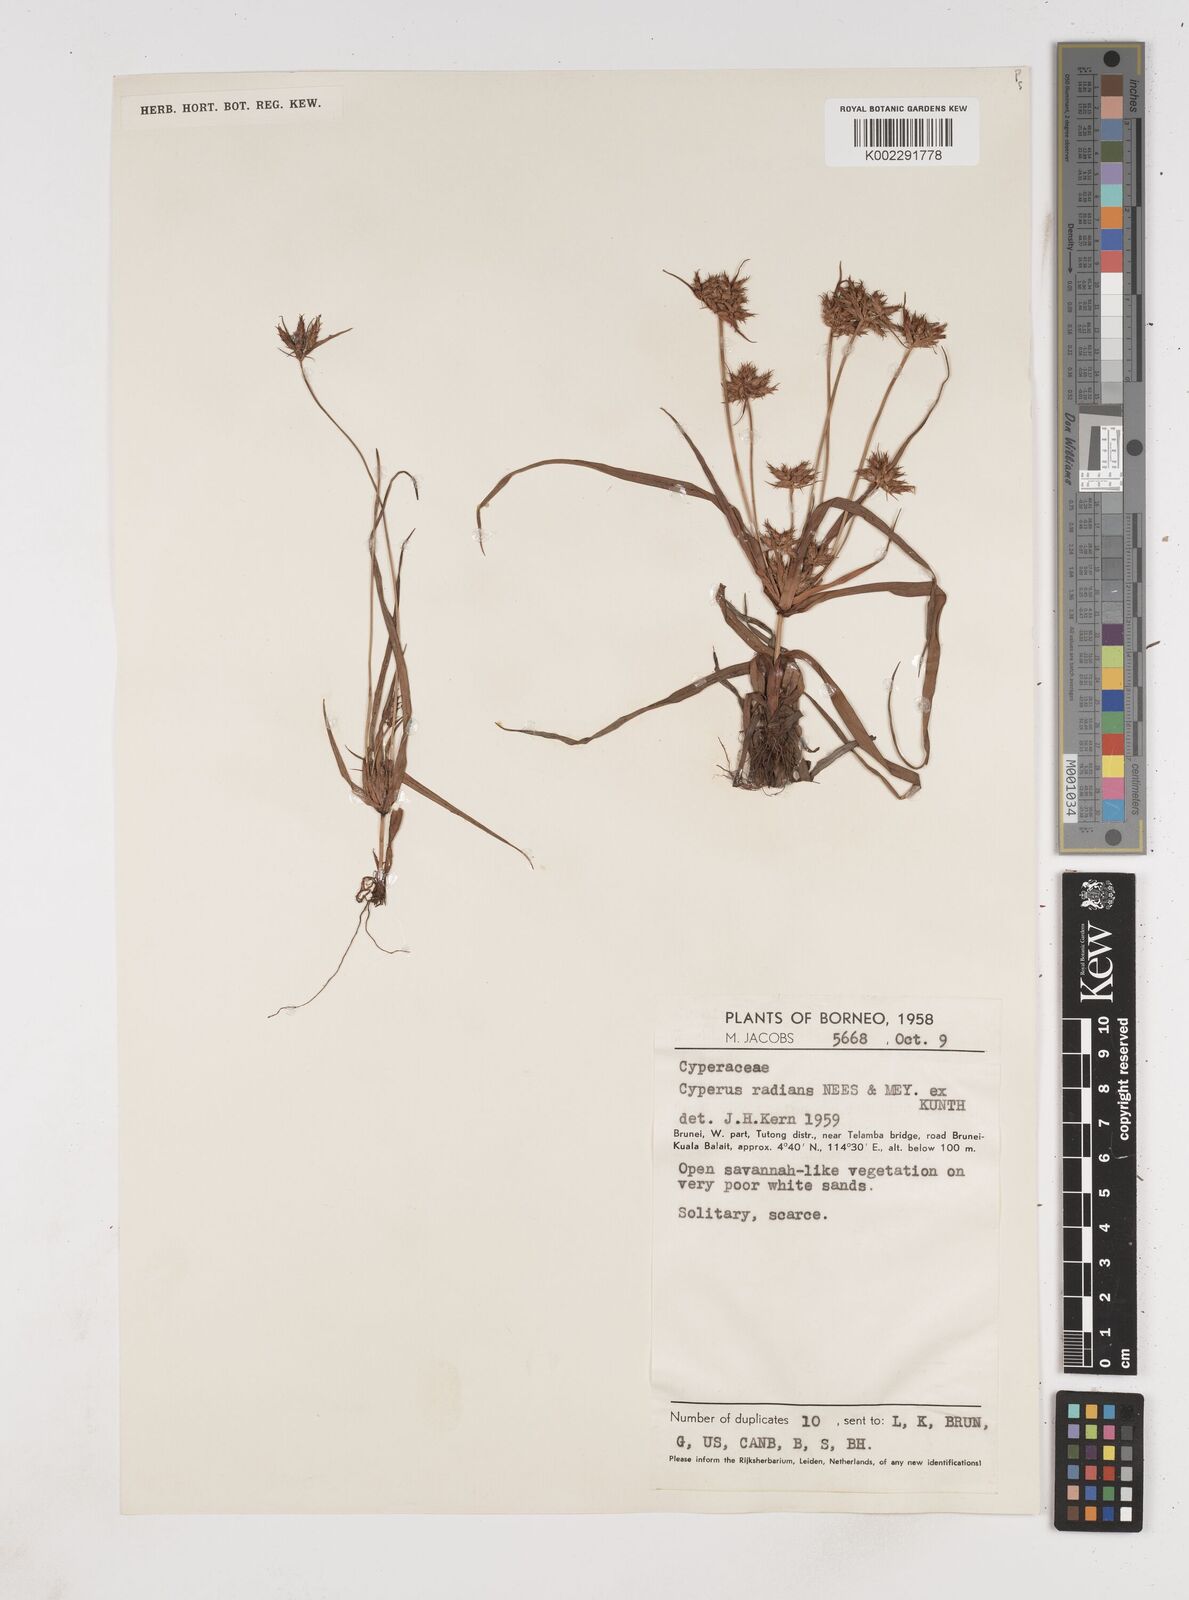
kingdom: Plantae
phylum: Tracheophyta
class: Liliopsida
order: Poales
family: Cyperaceae
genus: Cyperus
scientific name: Cyperus radians
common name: Short-stem cyperus
